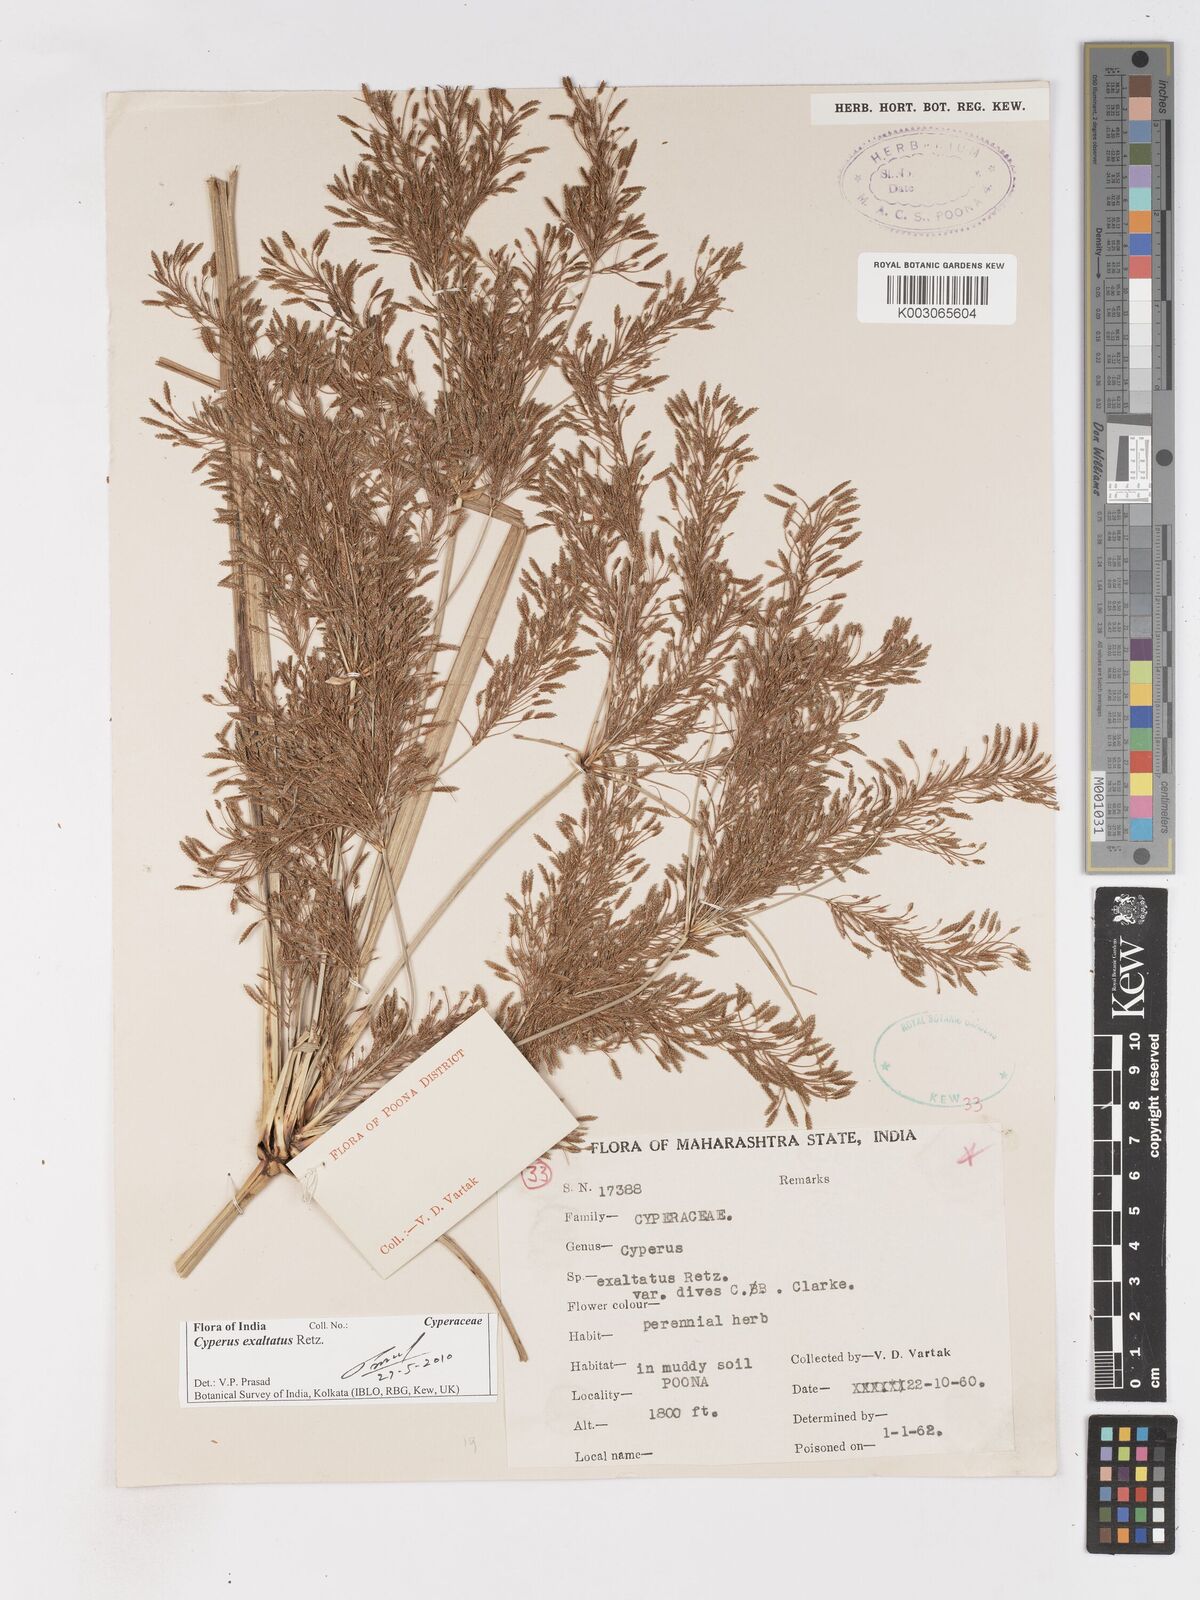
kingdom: Plantae
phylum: Tracheophyta
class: Liliopsida
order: Poales
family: Cyperaceae
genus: Cyperus
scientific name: Cyperus exaltatus
